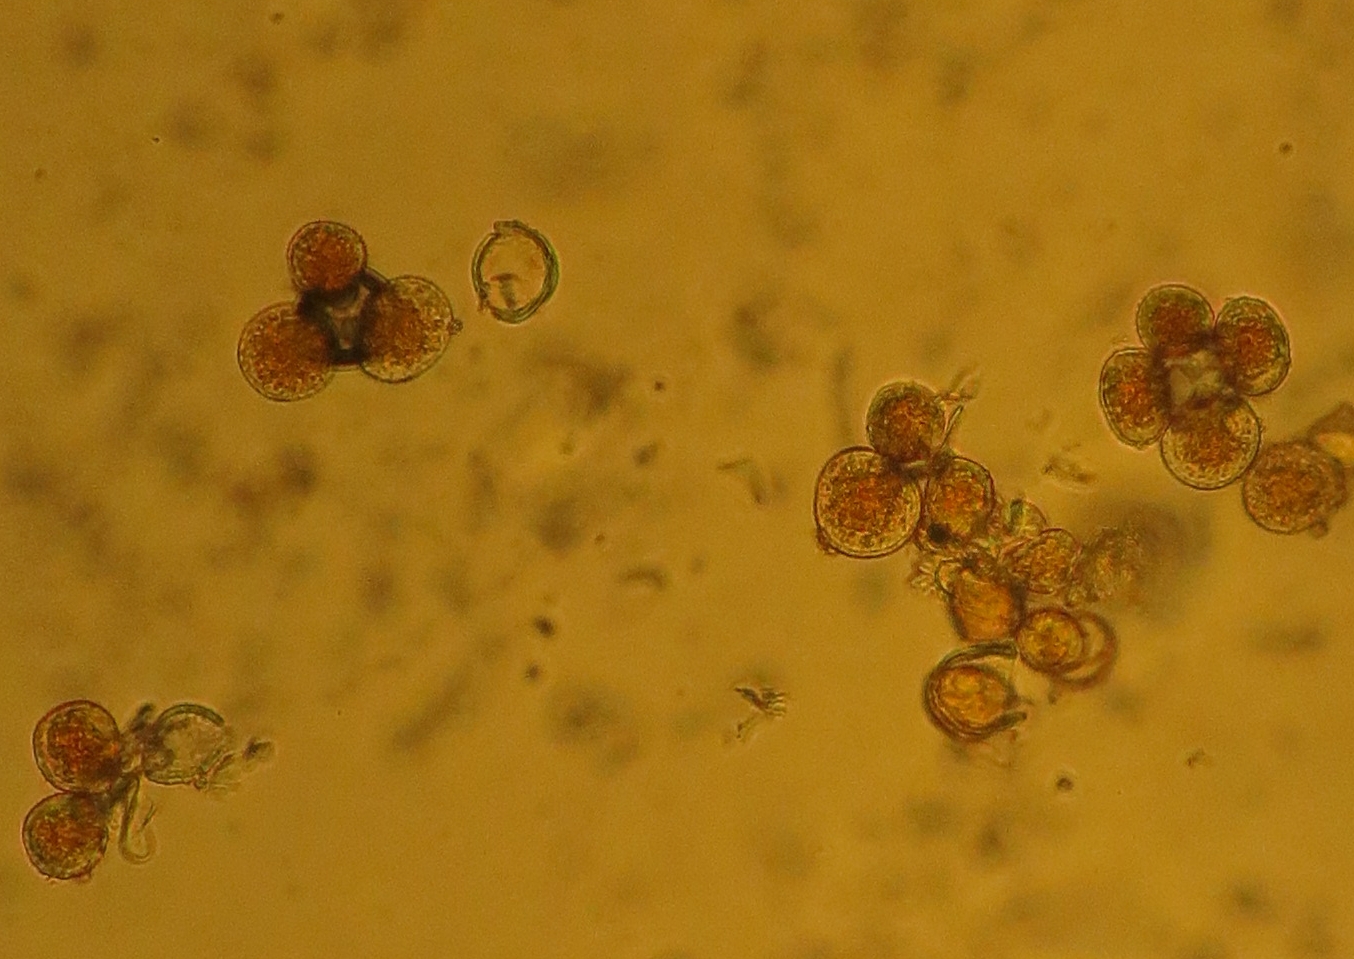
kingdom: Fungi
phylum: Basidiomycota
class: Pucciniomycetes
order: Pucciniales
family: Pucciniaceae
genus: Puccinia
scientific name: Puccinia coronata
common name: Crown rust
